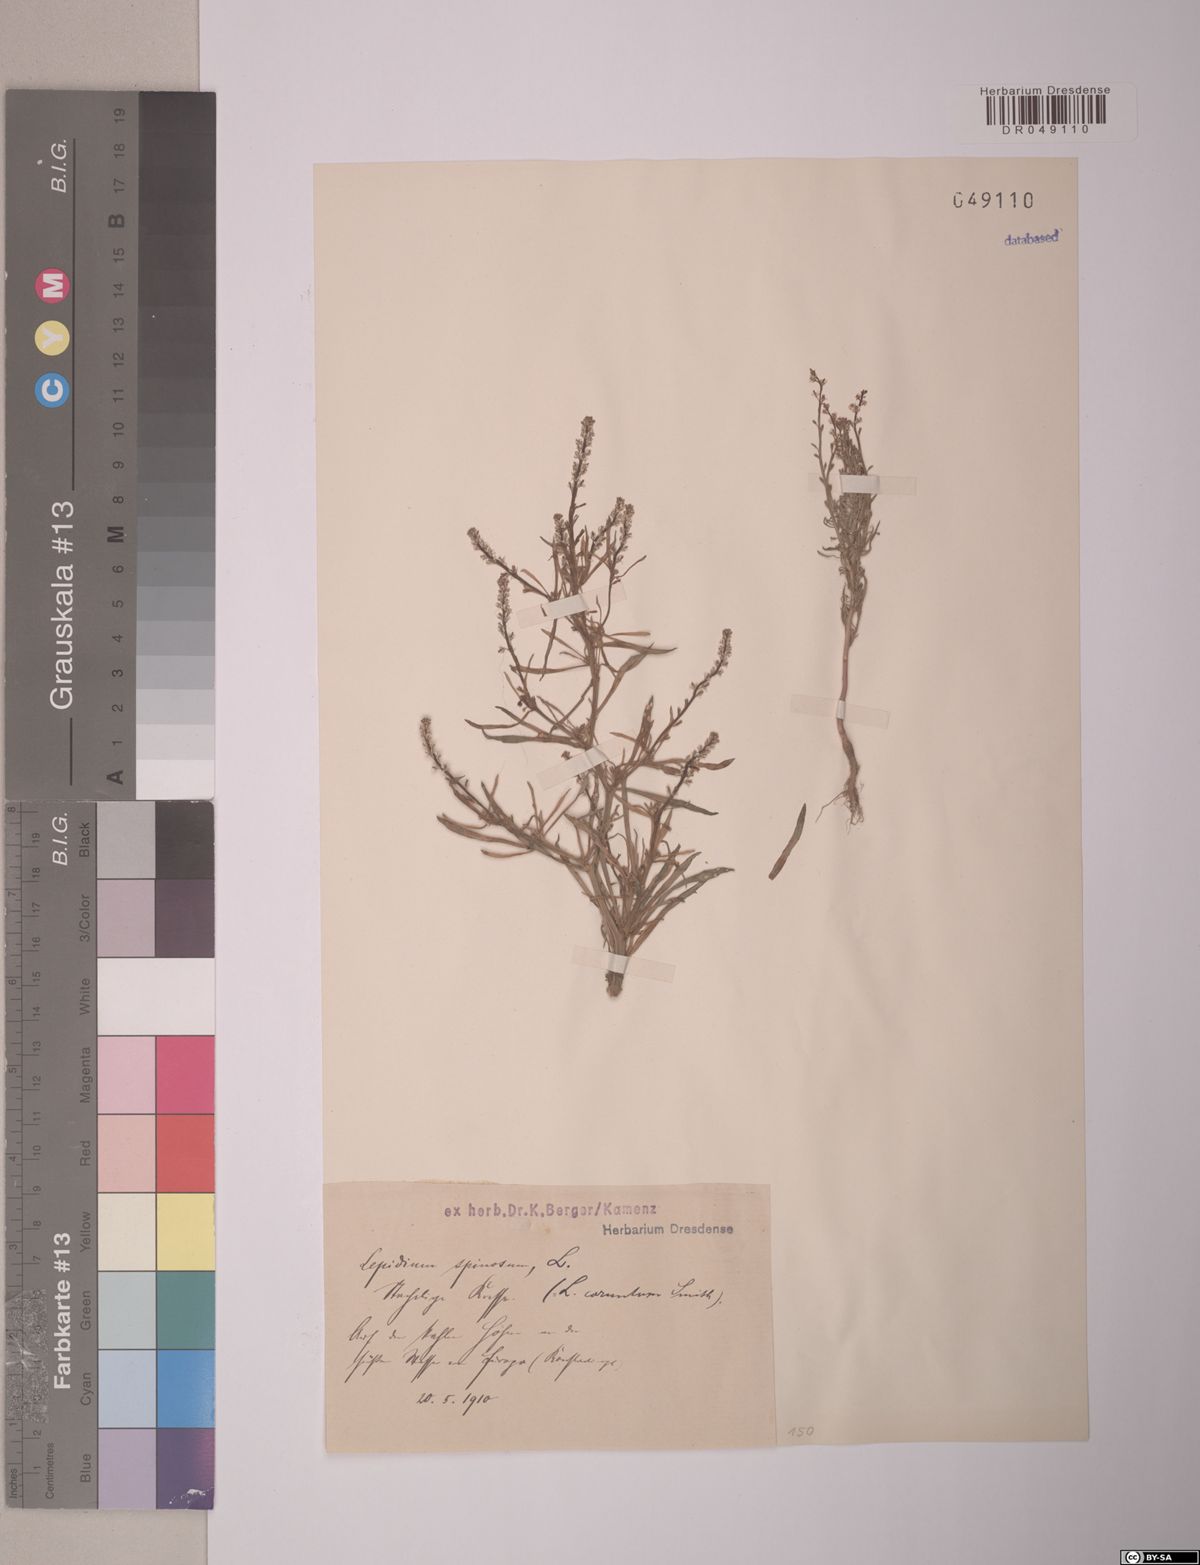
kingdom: Plantae
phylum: Tracheophyta
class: Magnoliopsida
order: Brassicales
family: Brassicaceae
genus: Lepidium
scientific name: Lepidium spinosum
